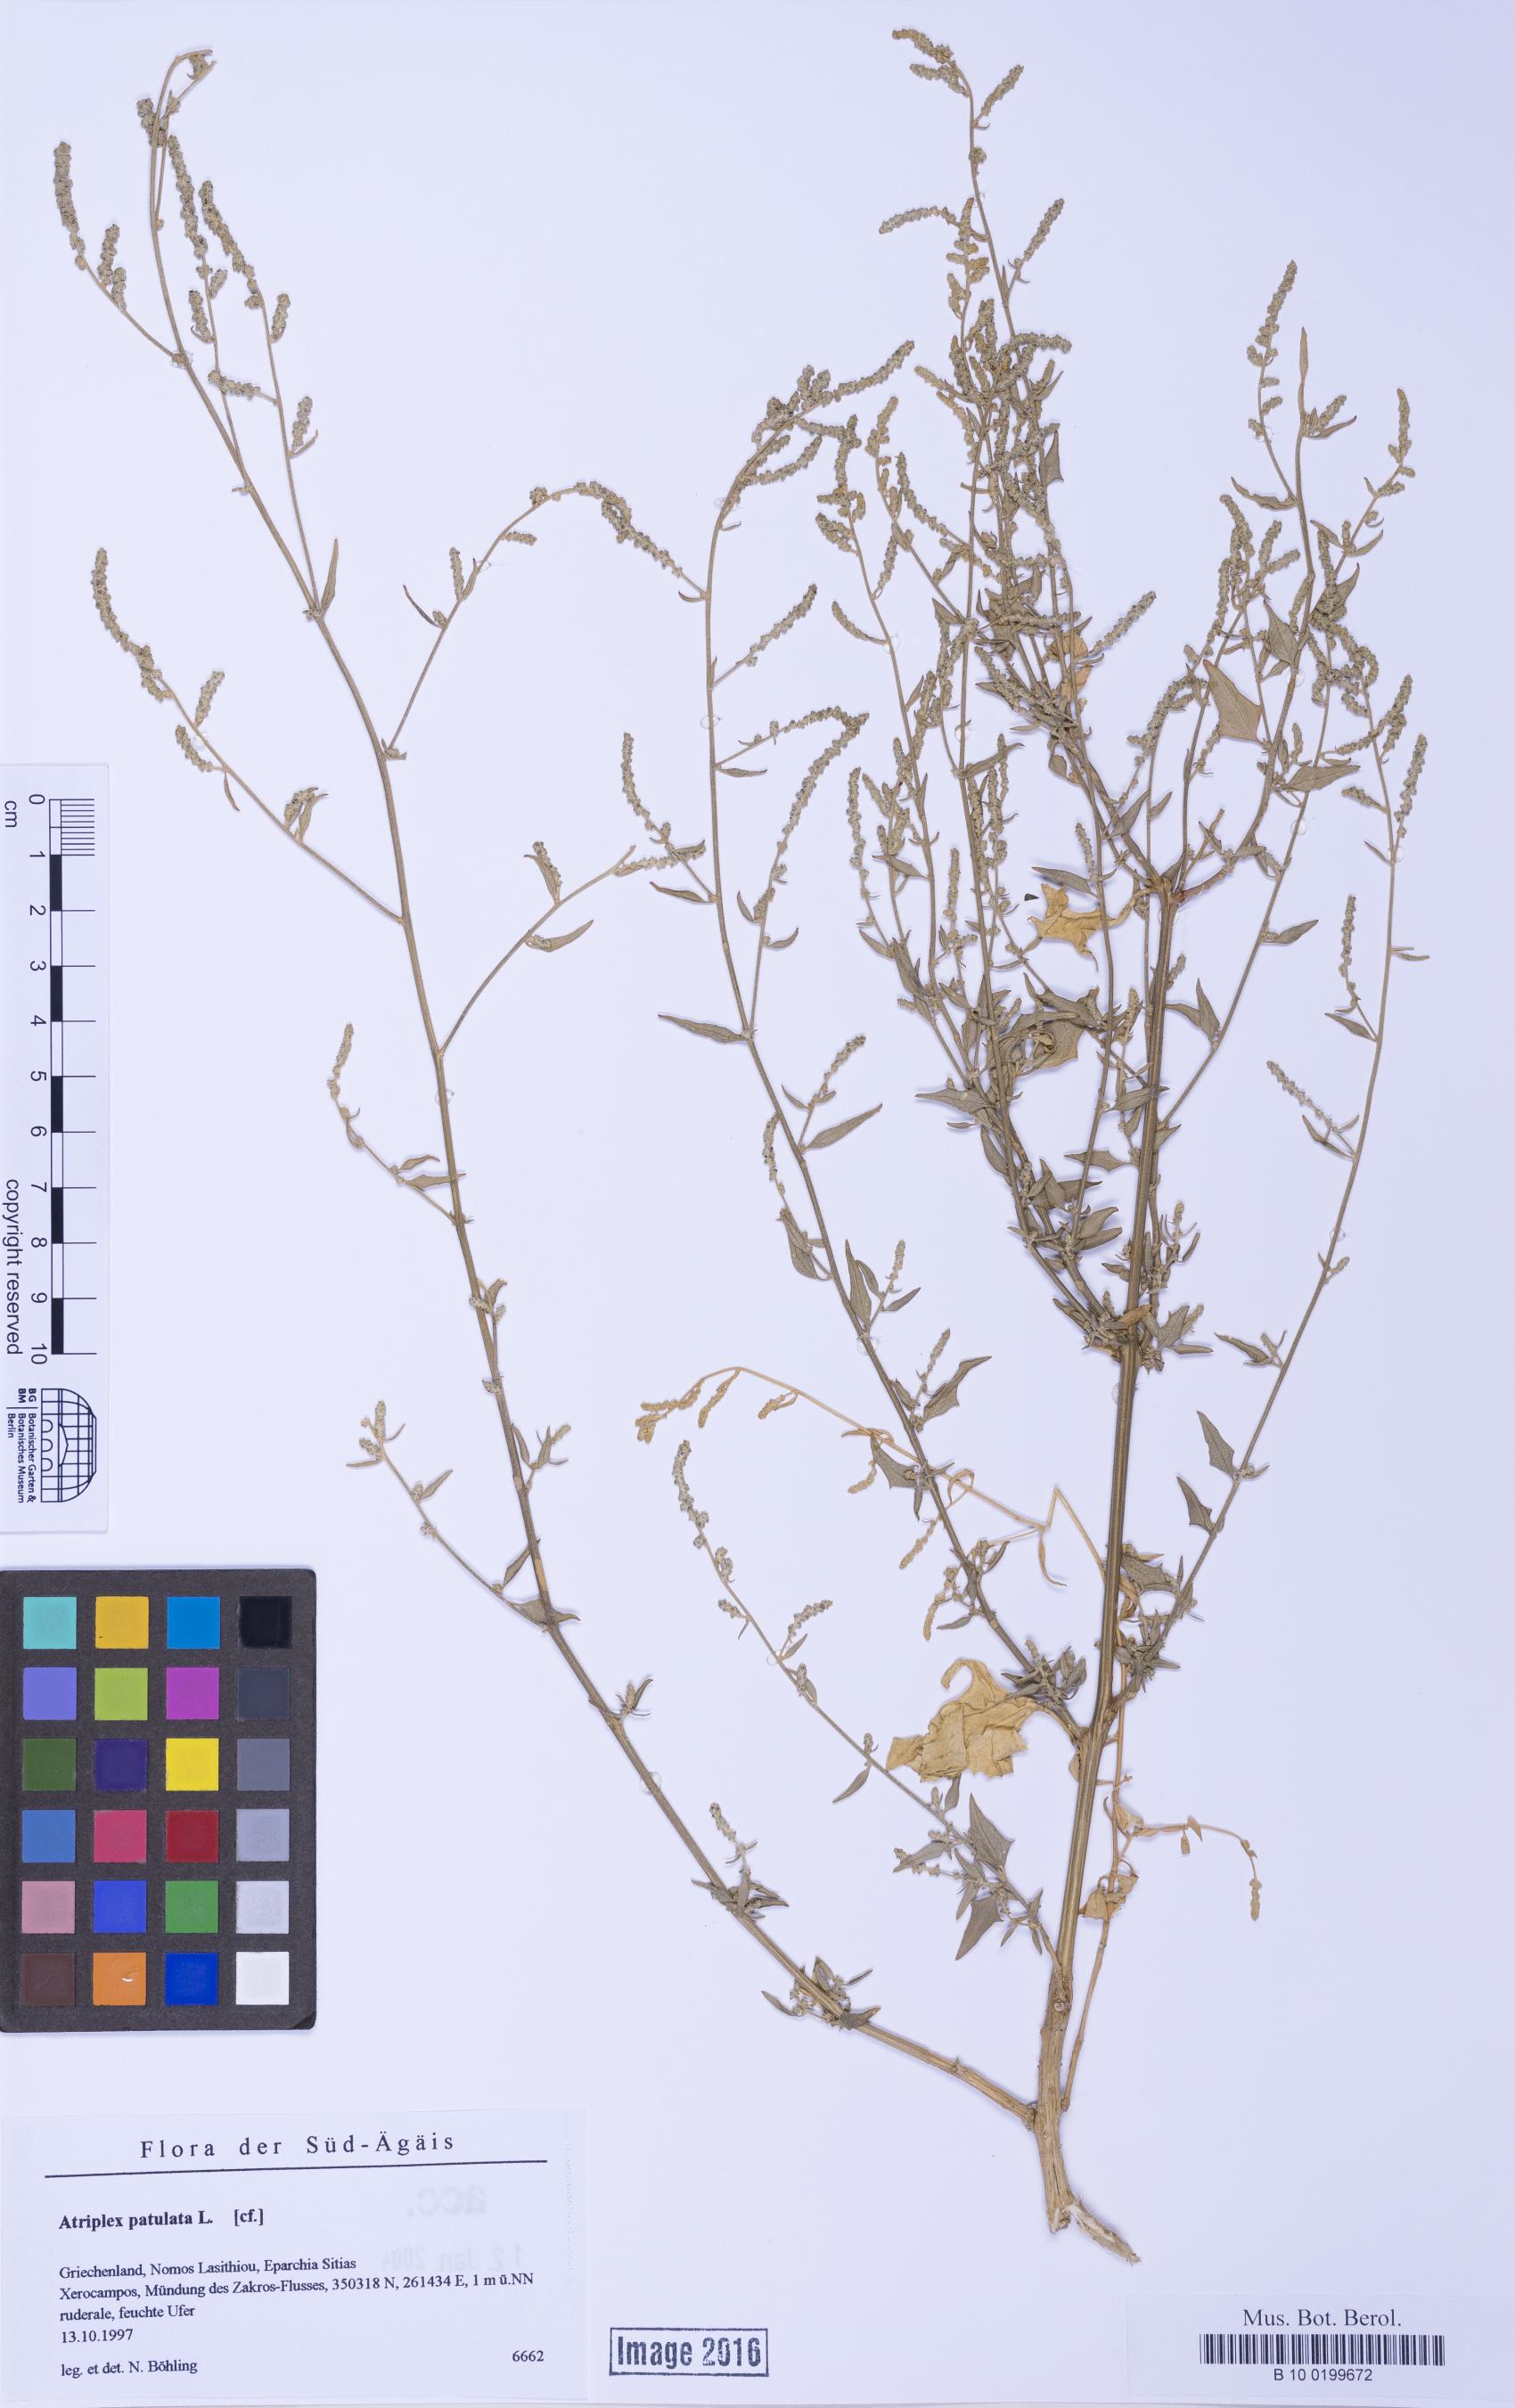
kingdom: Plantae
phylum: Tracheophyta
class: Magnoliopsida
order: Caryophyllales
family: Amaranthaceae
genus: Atriplex
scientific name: Atriplex prostrata
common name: Spear-leaved orache
